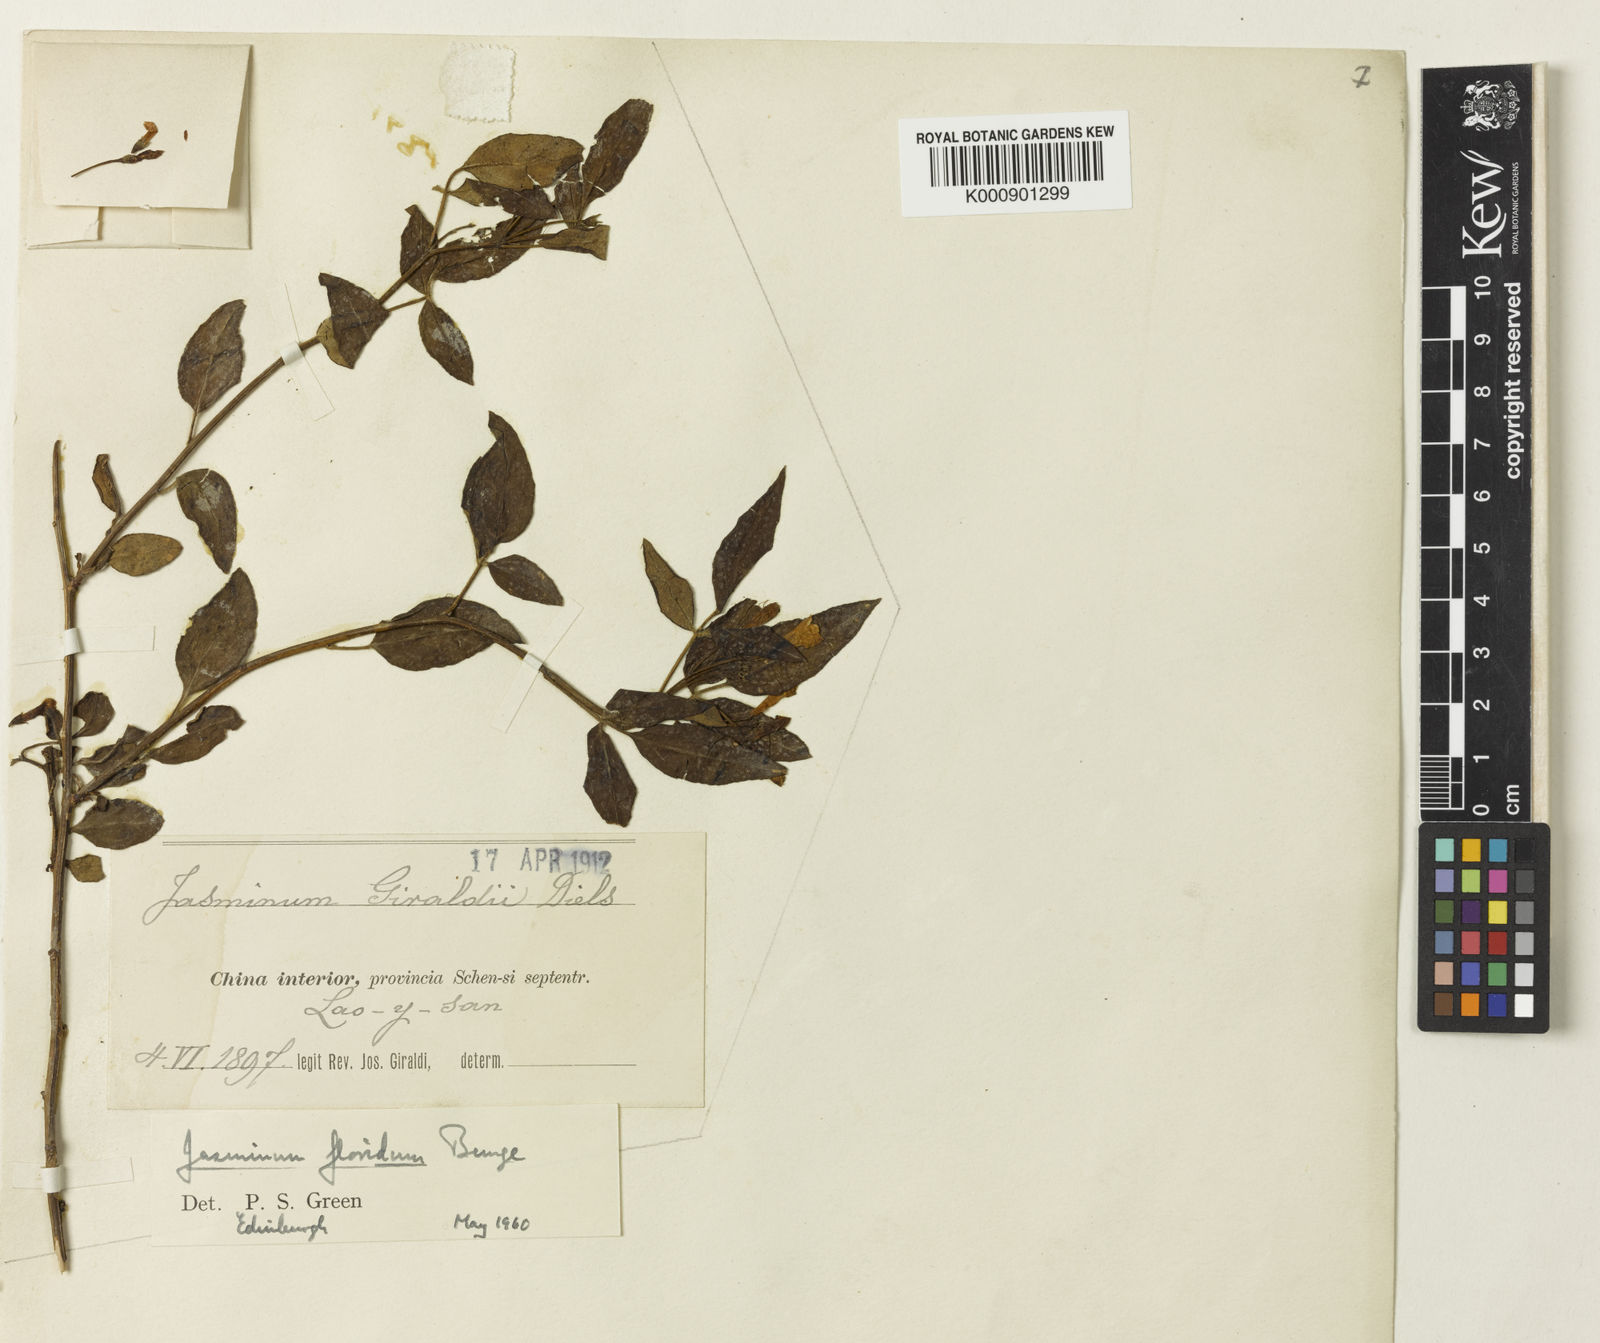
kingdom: Plantae
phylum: Tracheophyta
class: Magnoliopsida
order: Lamiales
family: Oleaceae
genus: Chrysojasminum
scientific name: Chrysojasminum floridum
